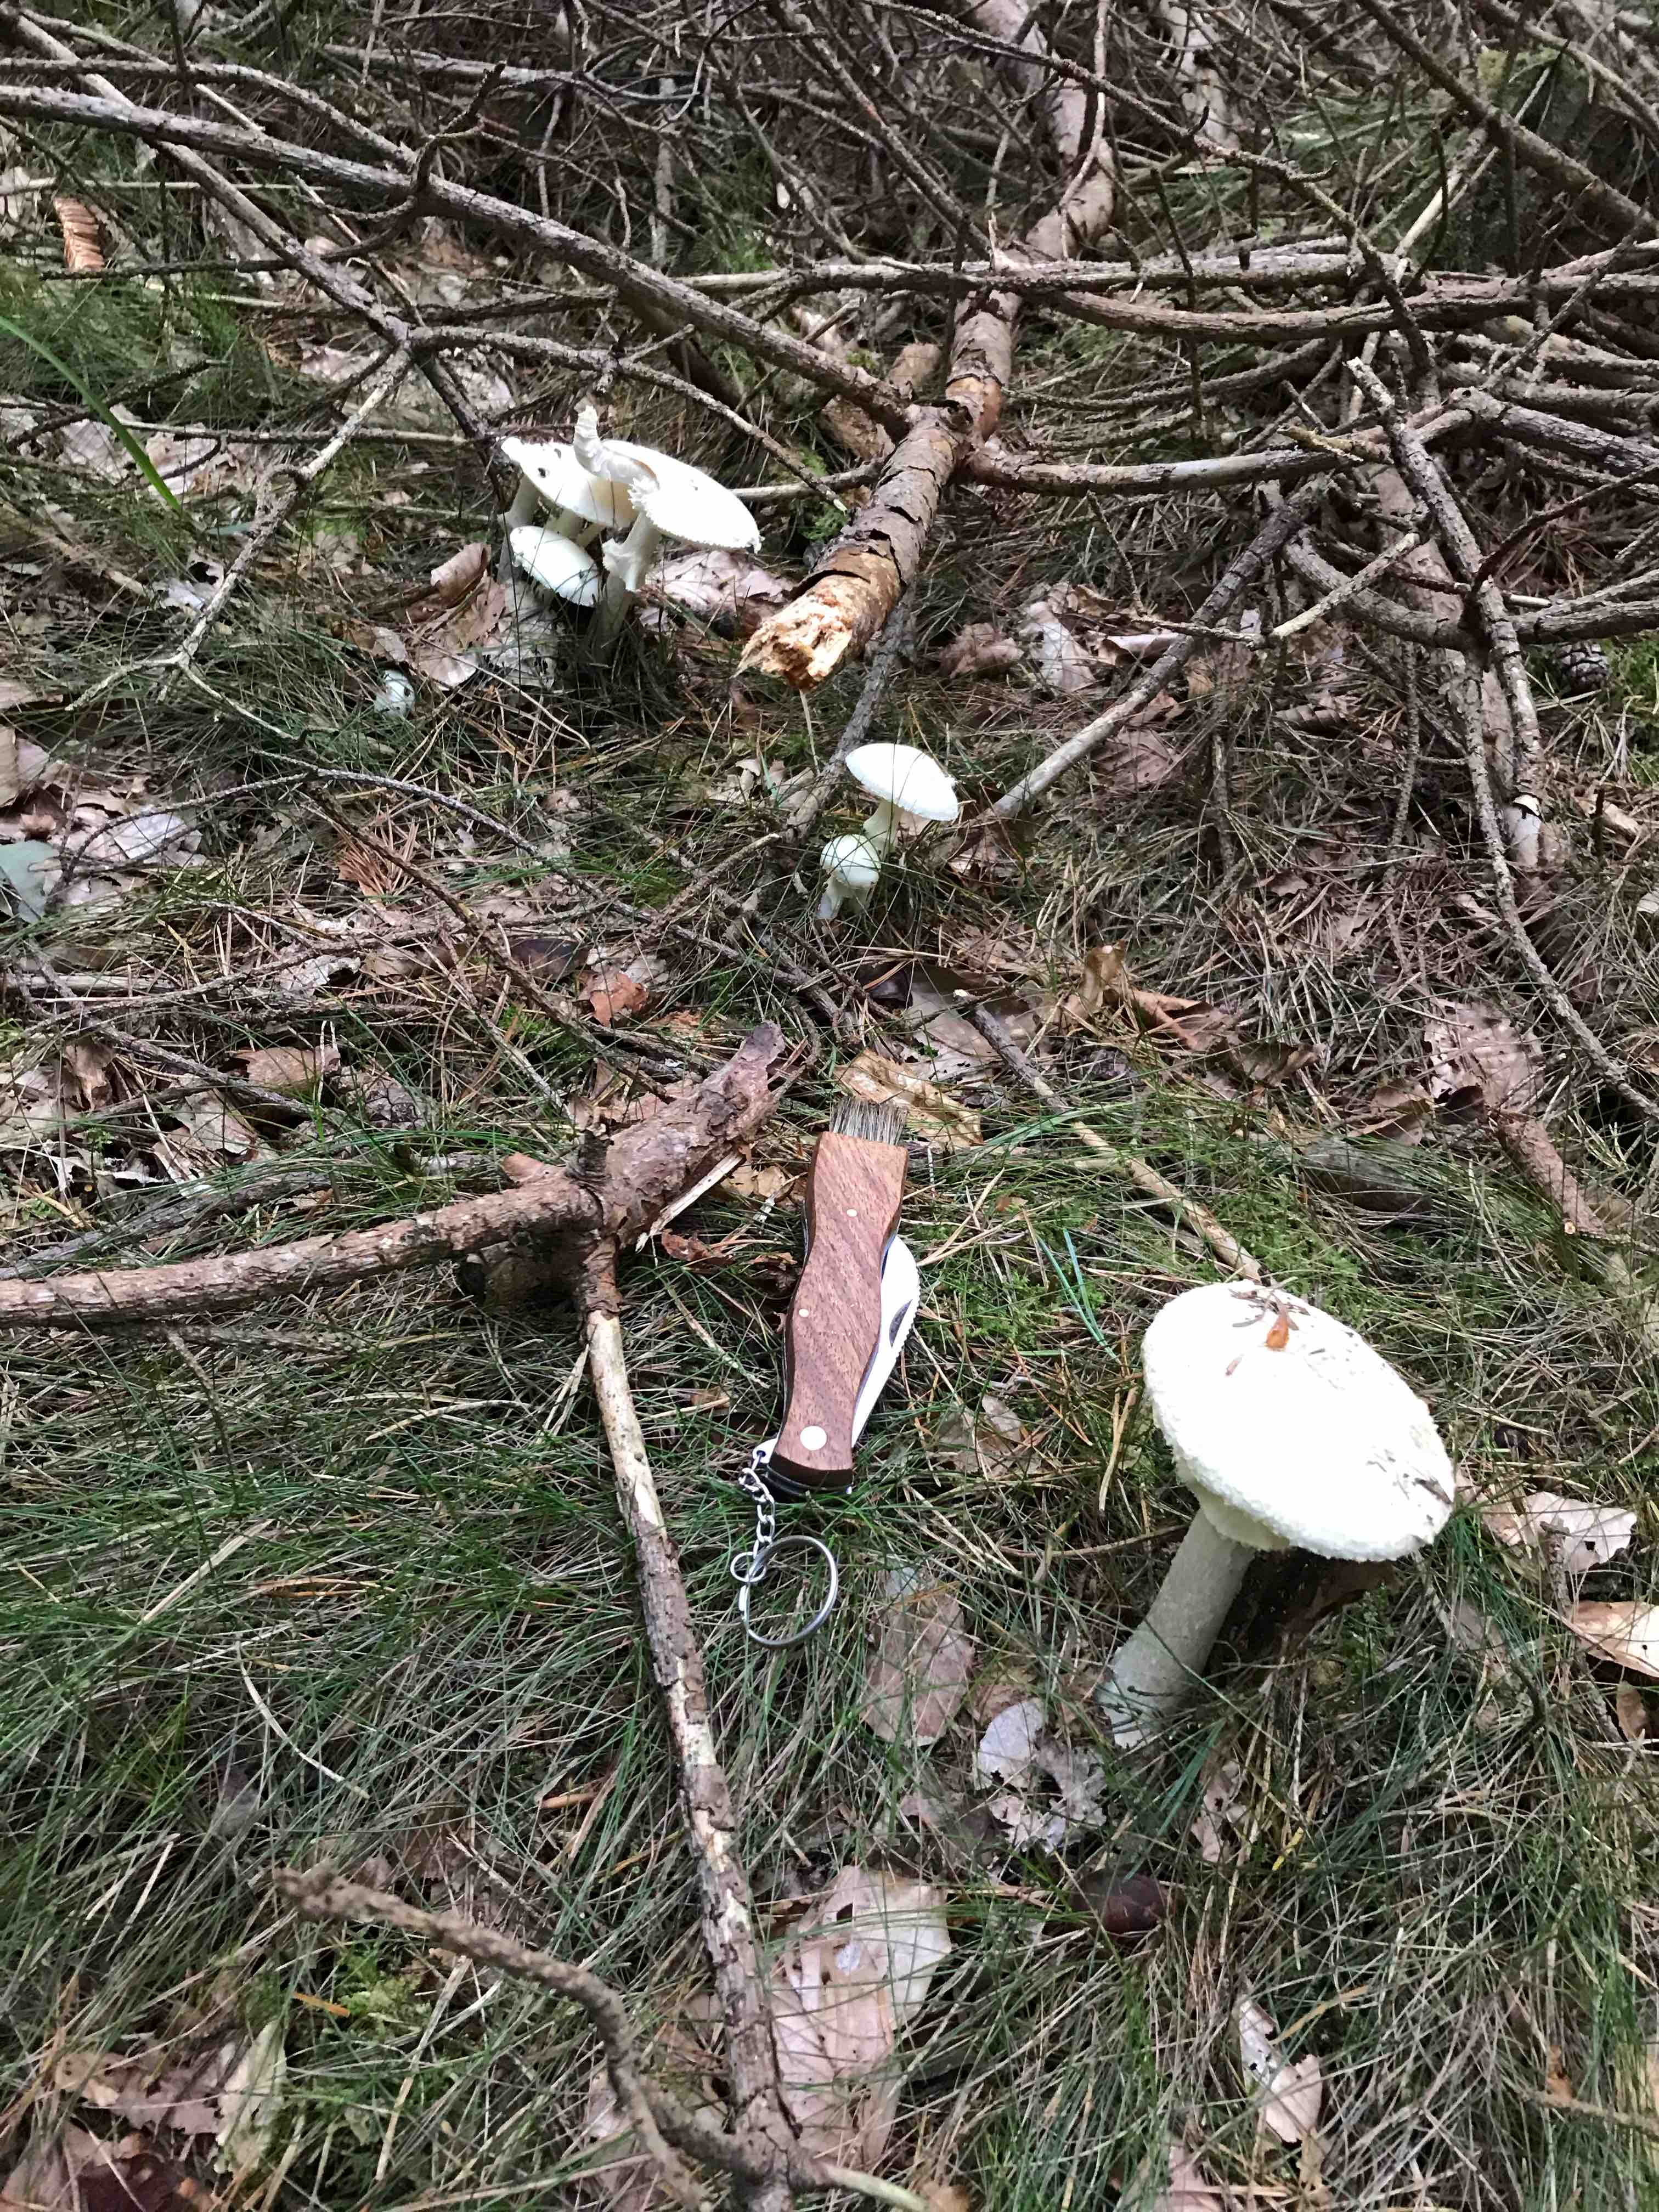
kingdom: Fungi
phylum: Basidiomycota
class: Agaricomycetes
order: Agaricales
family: Amanitaceae
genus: Amanita
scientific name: Amanita virosa
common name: snehvid fluesvamp
